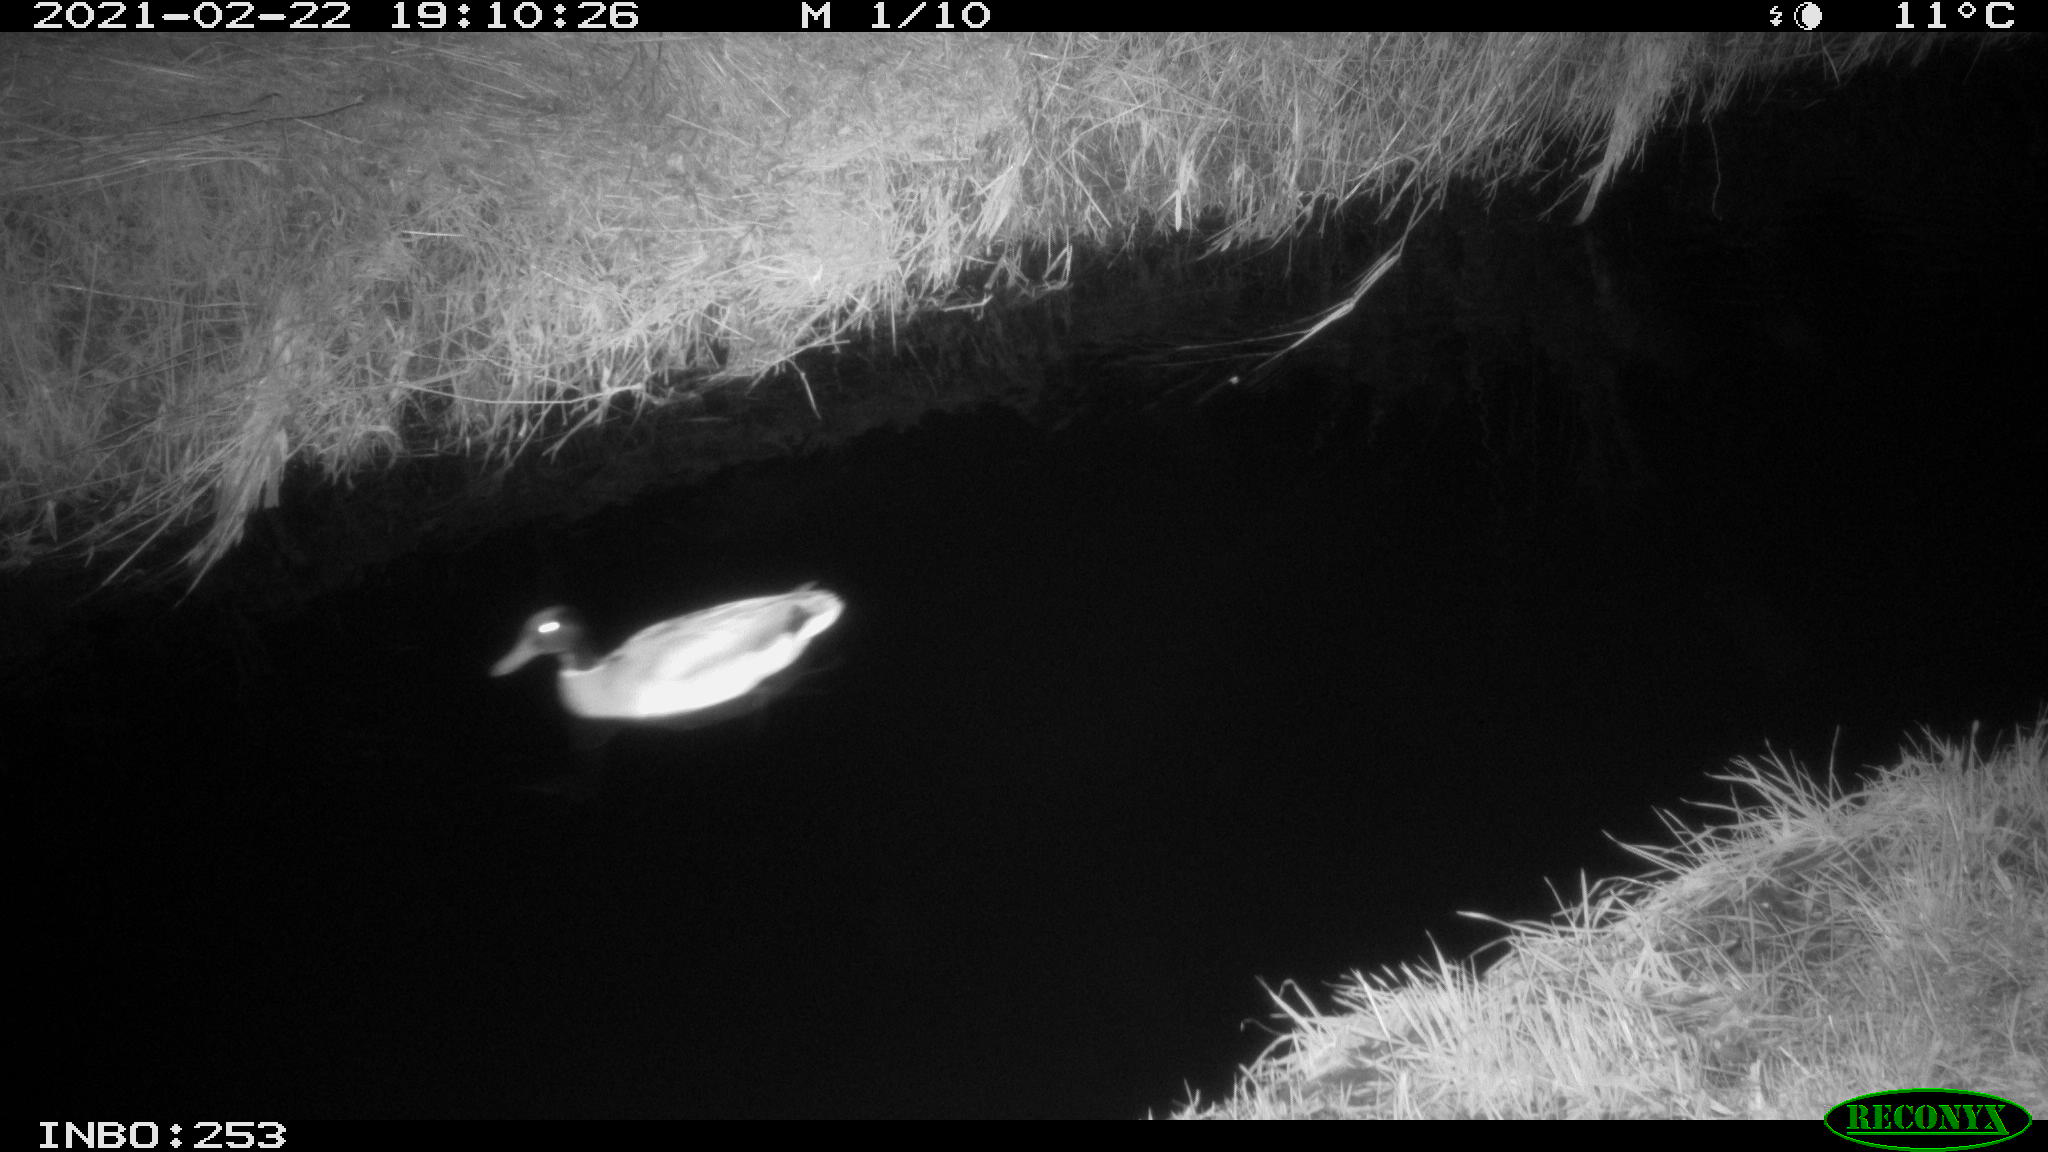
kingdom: Animalia
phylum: Chordata
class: Aves
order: Anseriformes
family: Anatidae
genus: Anas
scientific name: Anas platyrhynchos
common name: Mallard
